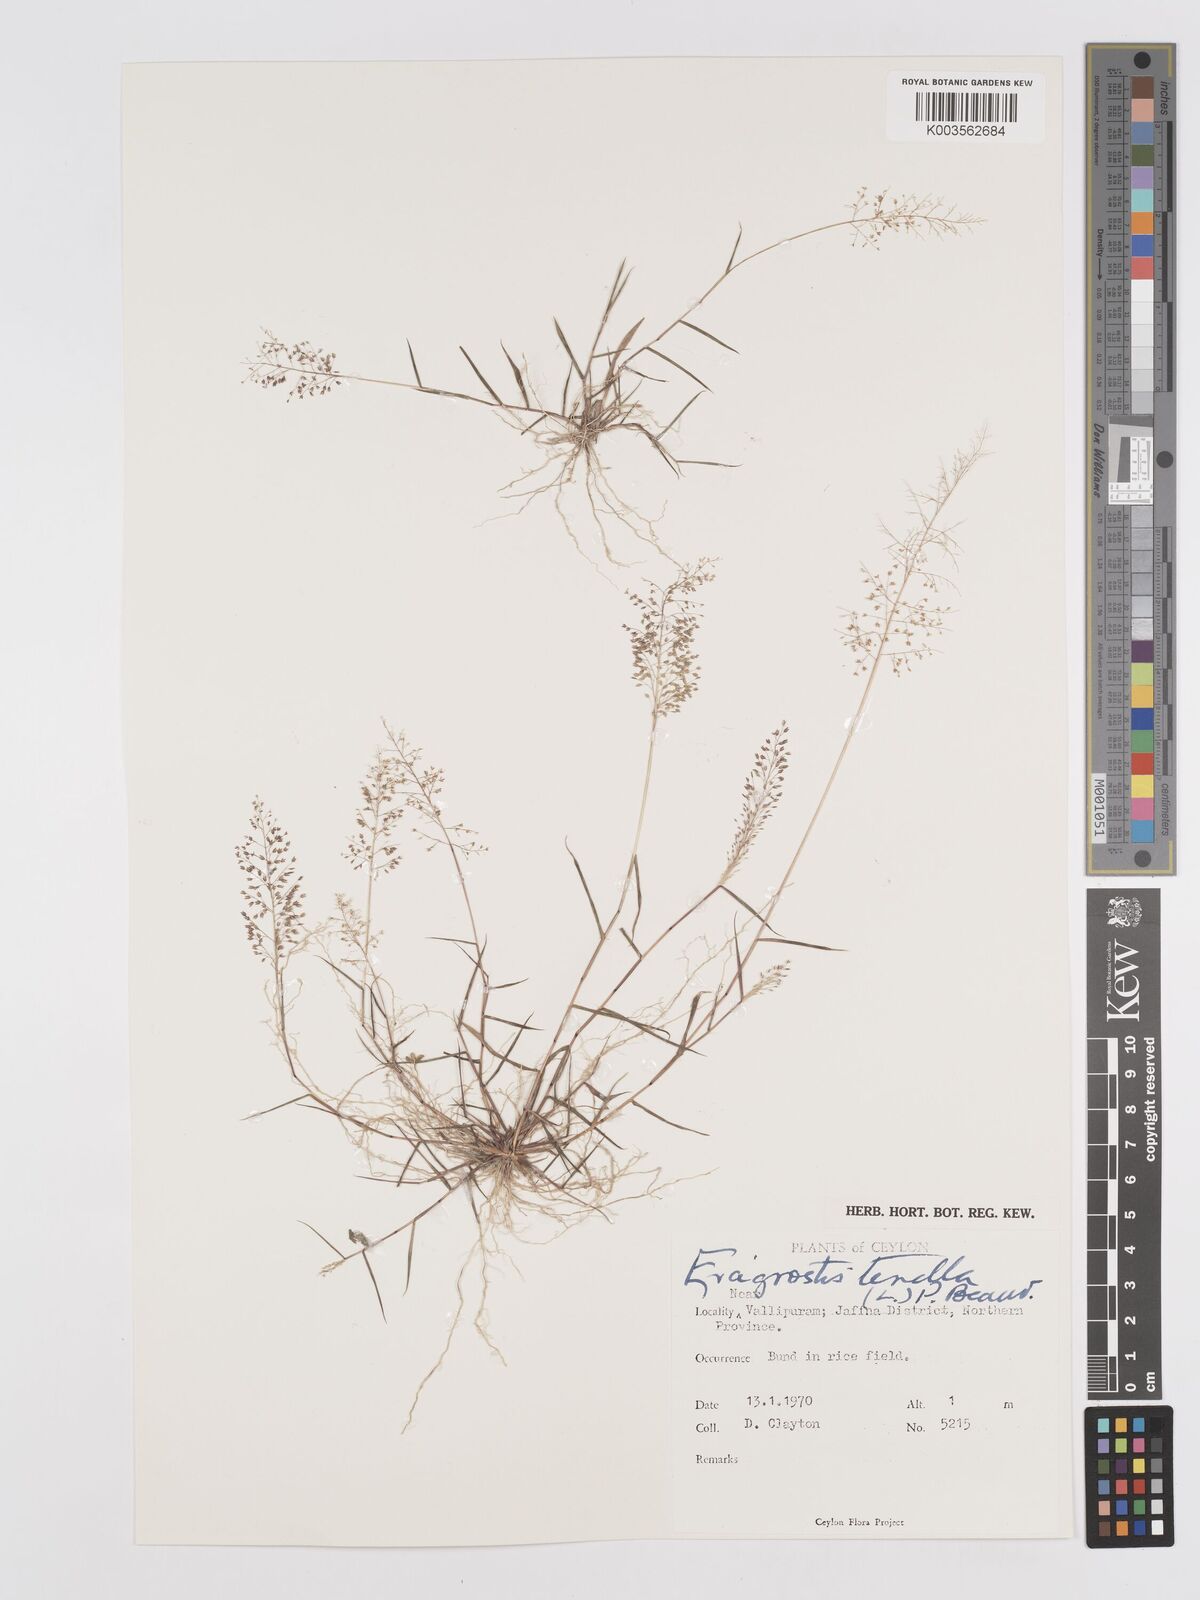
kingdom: Plantae
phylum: Tracheophyta
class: Liliopsida
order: Poales
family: Poaceae
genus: Eragrostis
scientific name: Eragrostis tenella
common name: Japanese lovegrass
